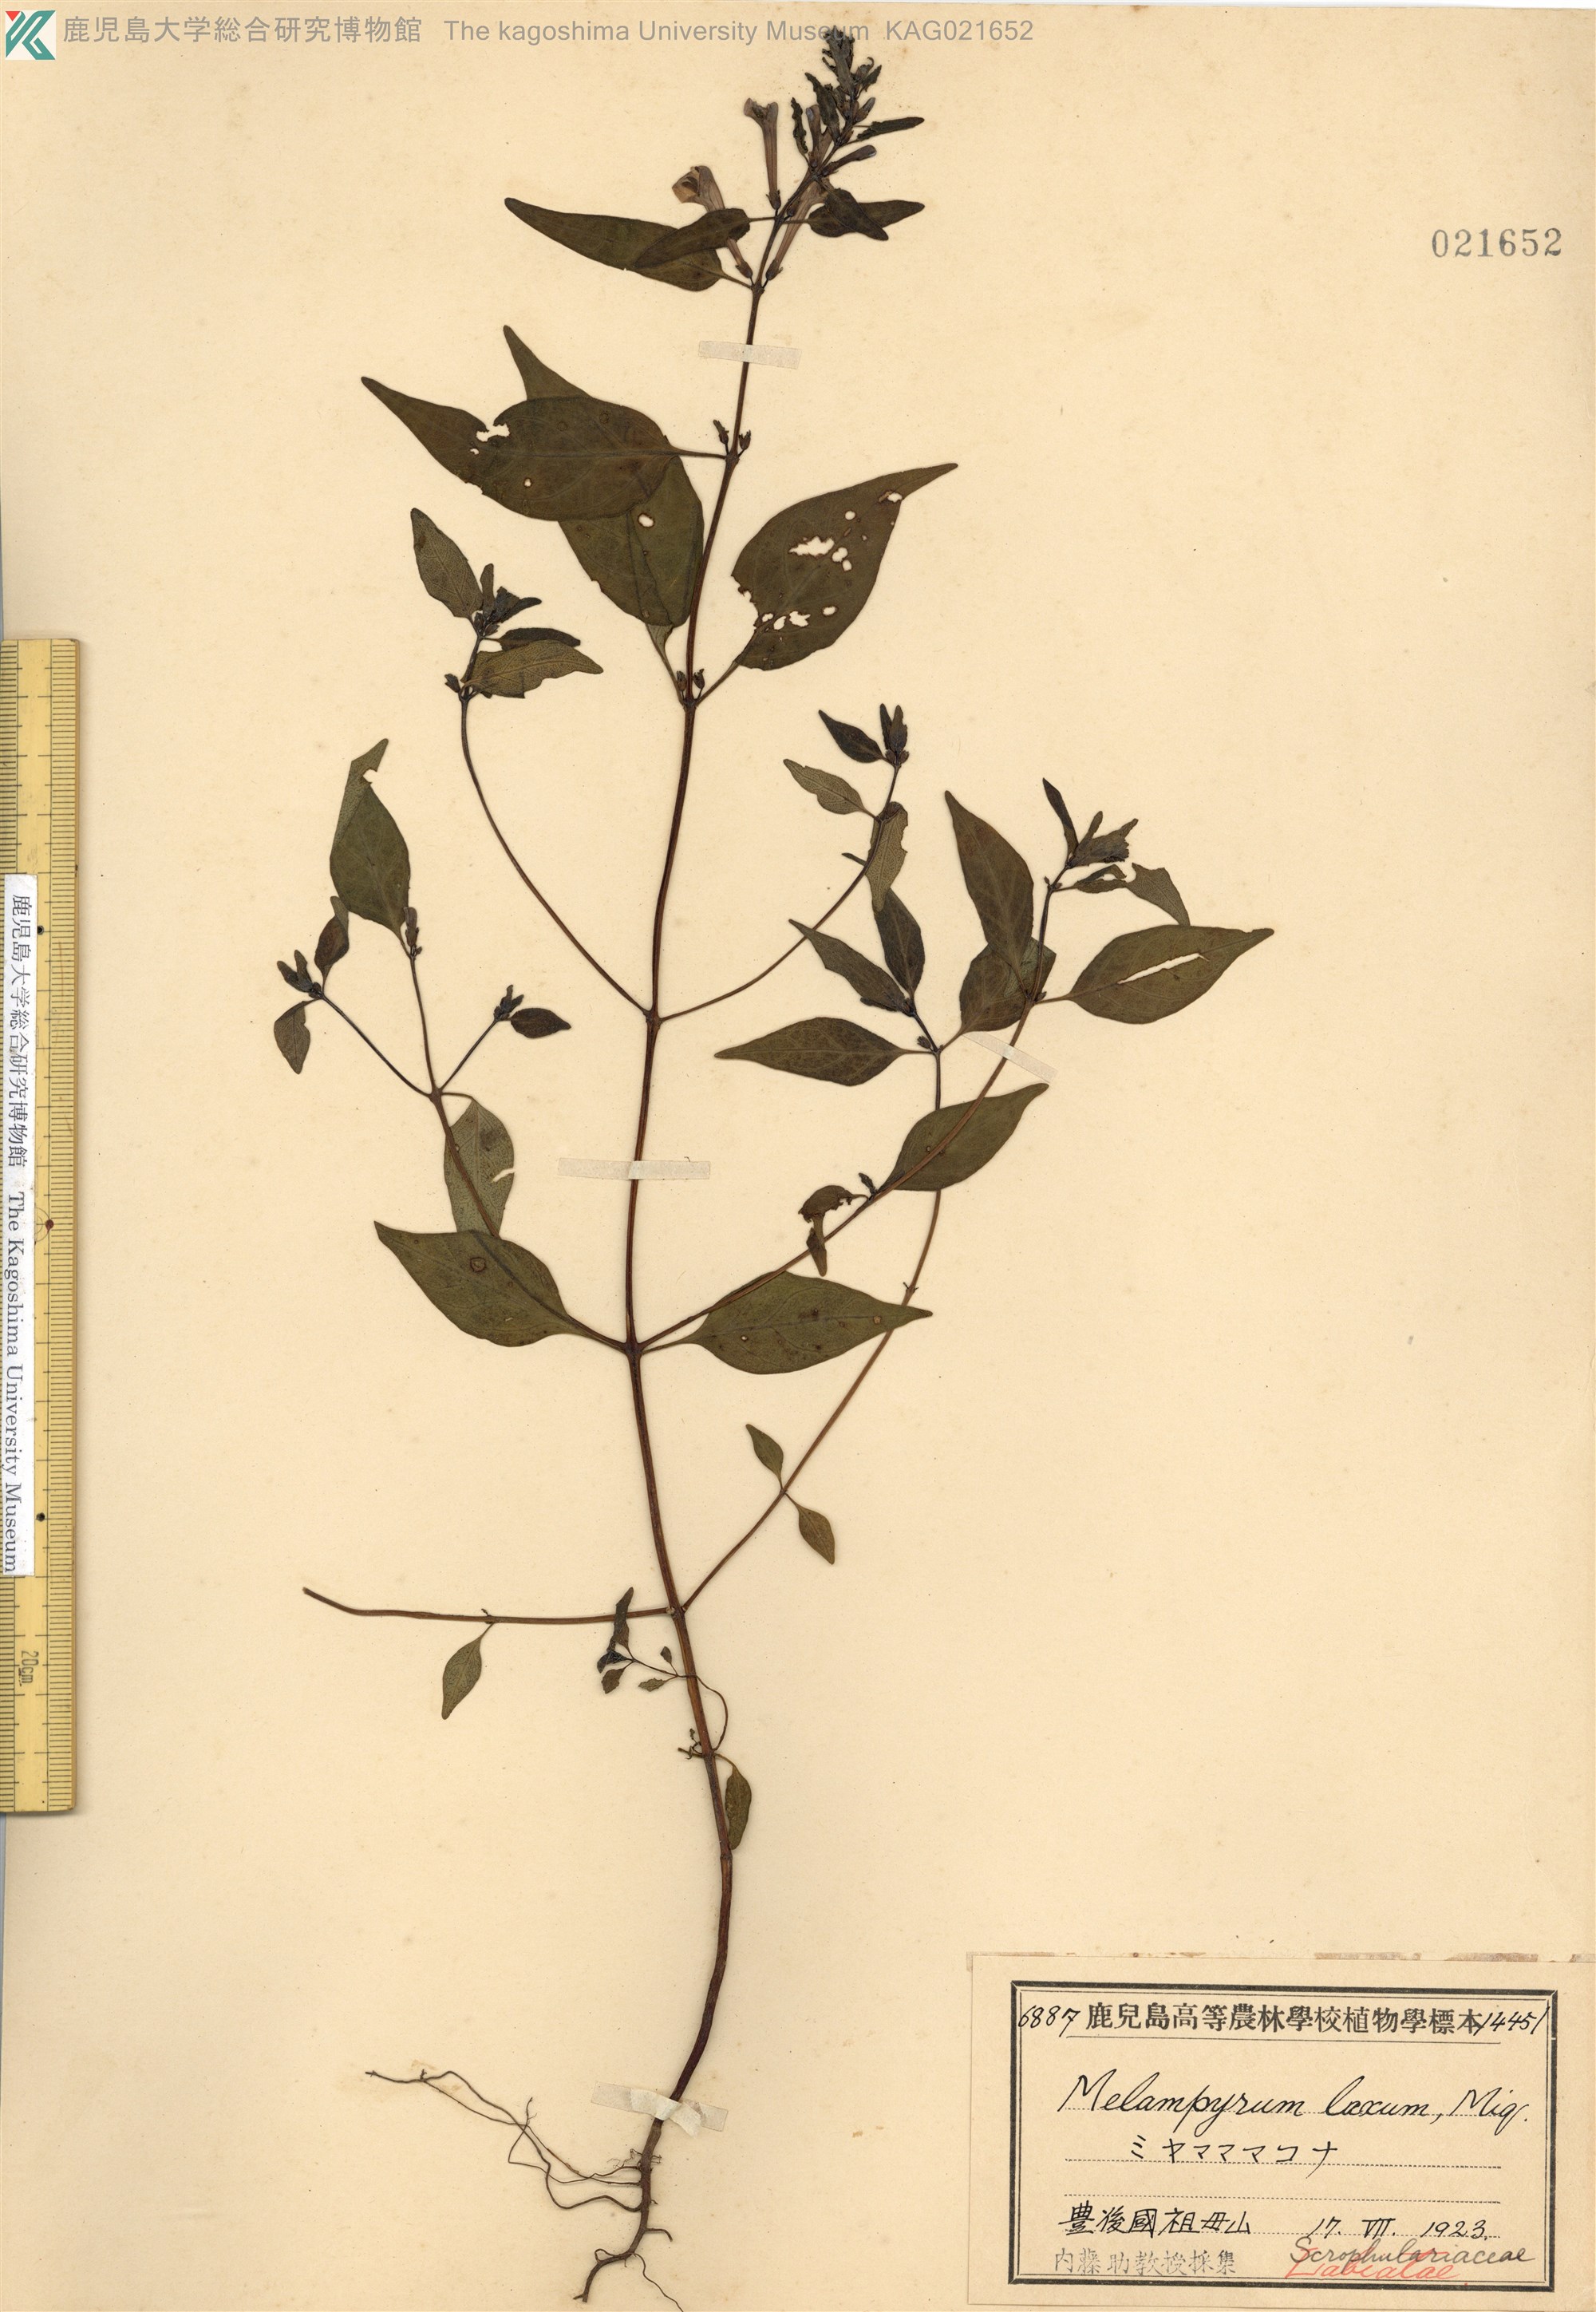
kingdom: Plantae
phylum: Tracheophyta
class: Magnoliopsida
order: Lamiales
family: Orobanchaceae
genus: Melampyrum
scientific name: Melampyrum laxum
